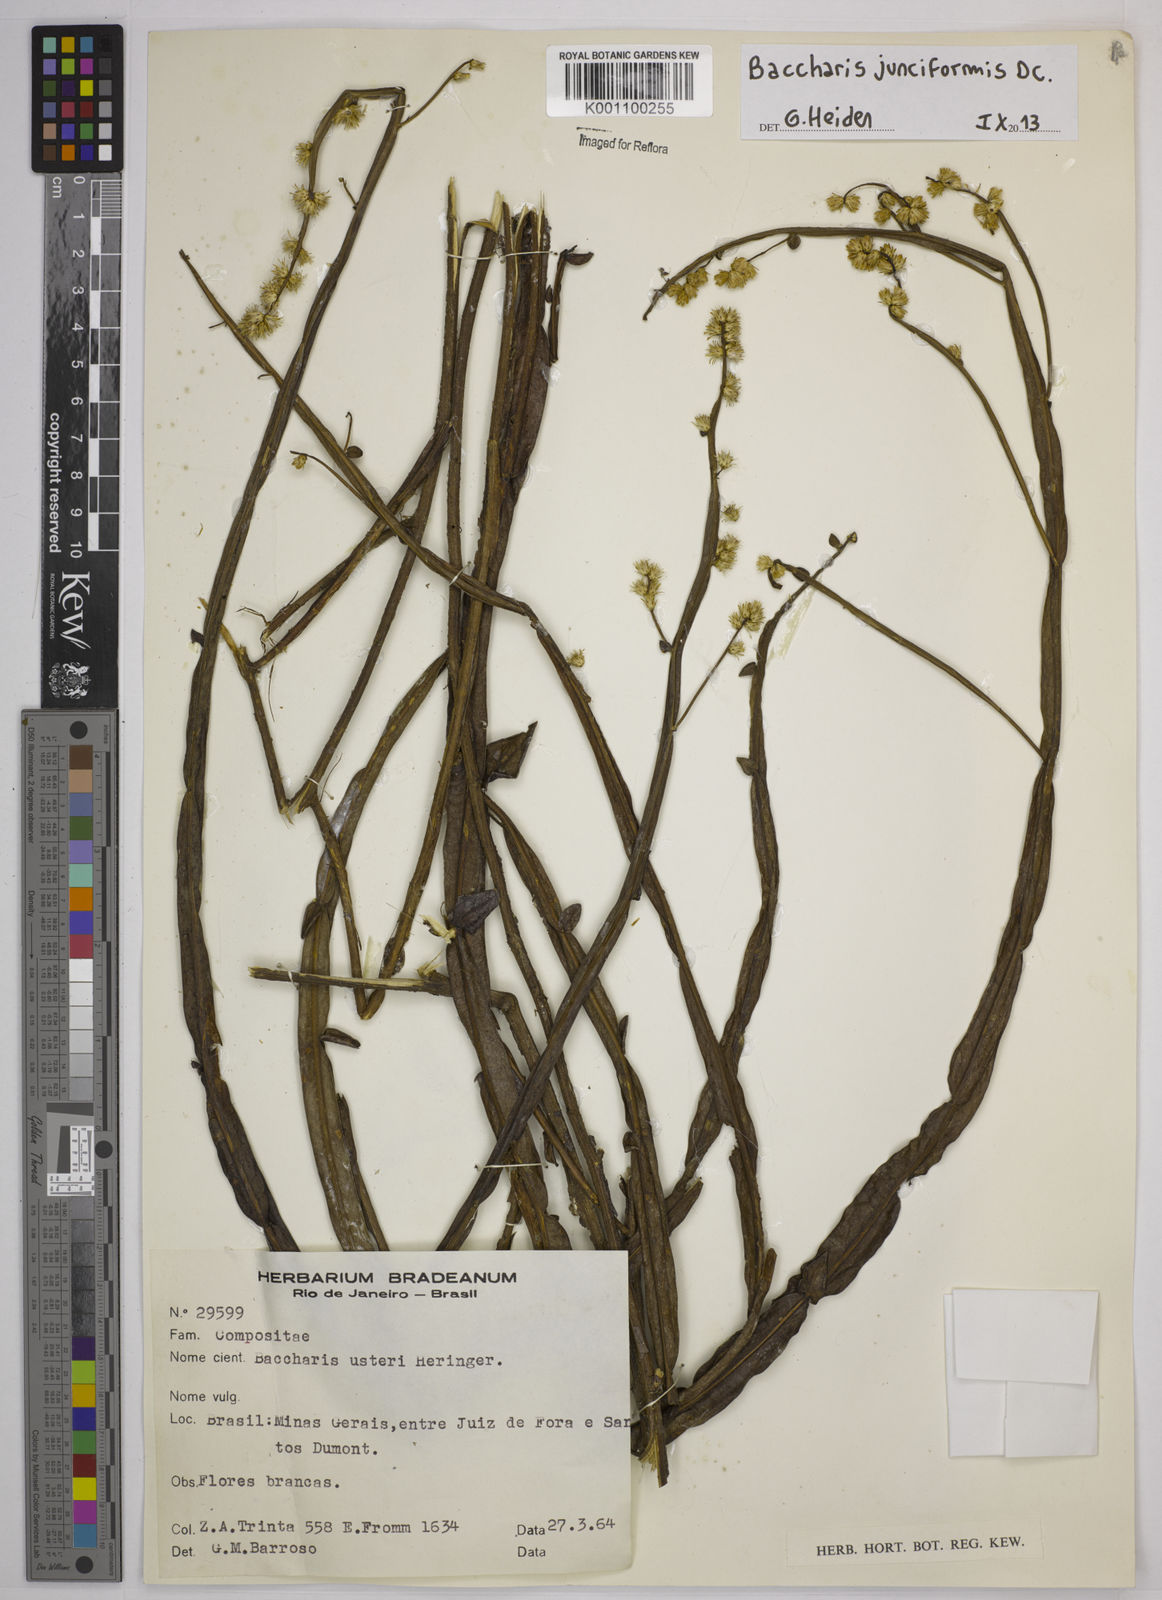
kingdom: Plantae
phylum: Tracheophyta
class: Magnoliopsida
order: Asterales
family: Asteraceae
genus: Baccharis
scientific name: Baccharis junciformis
